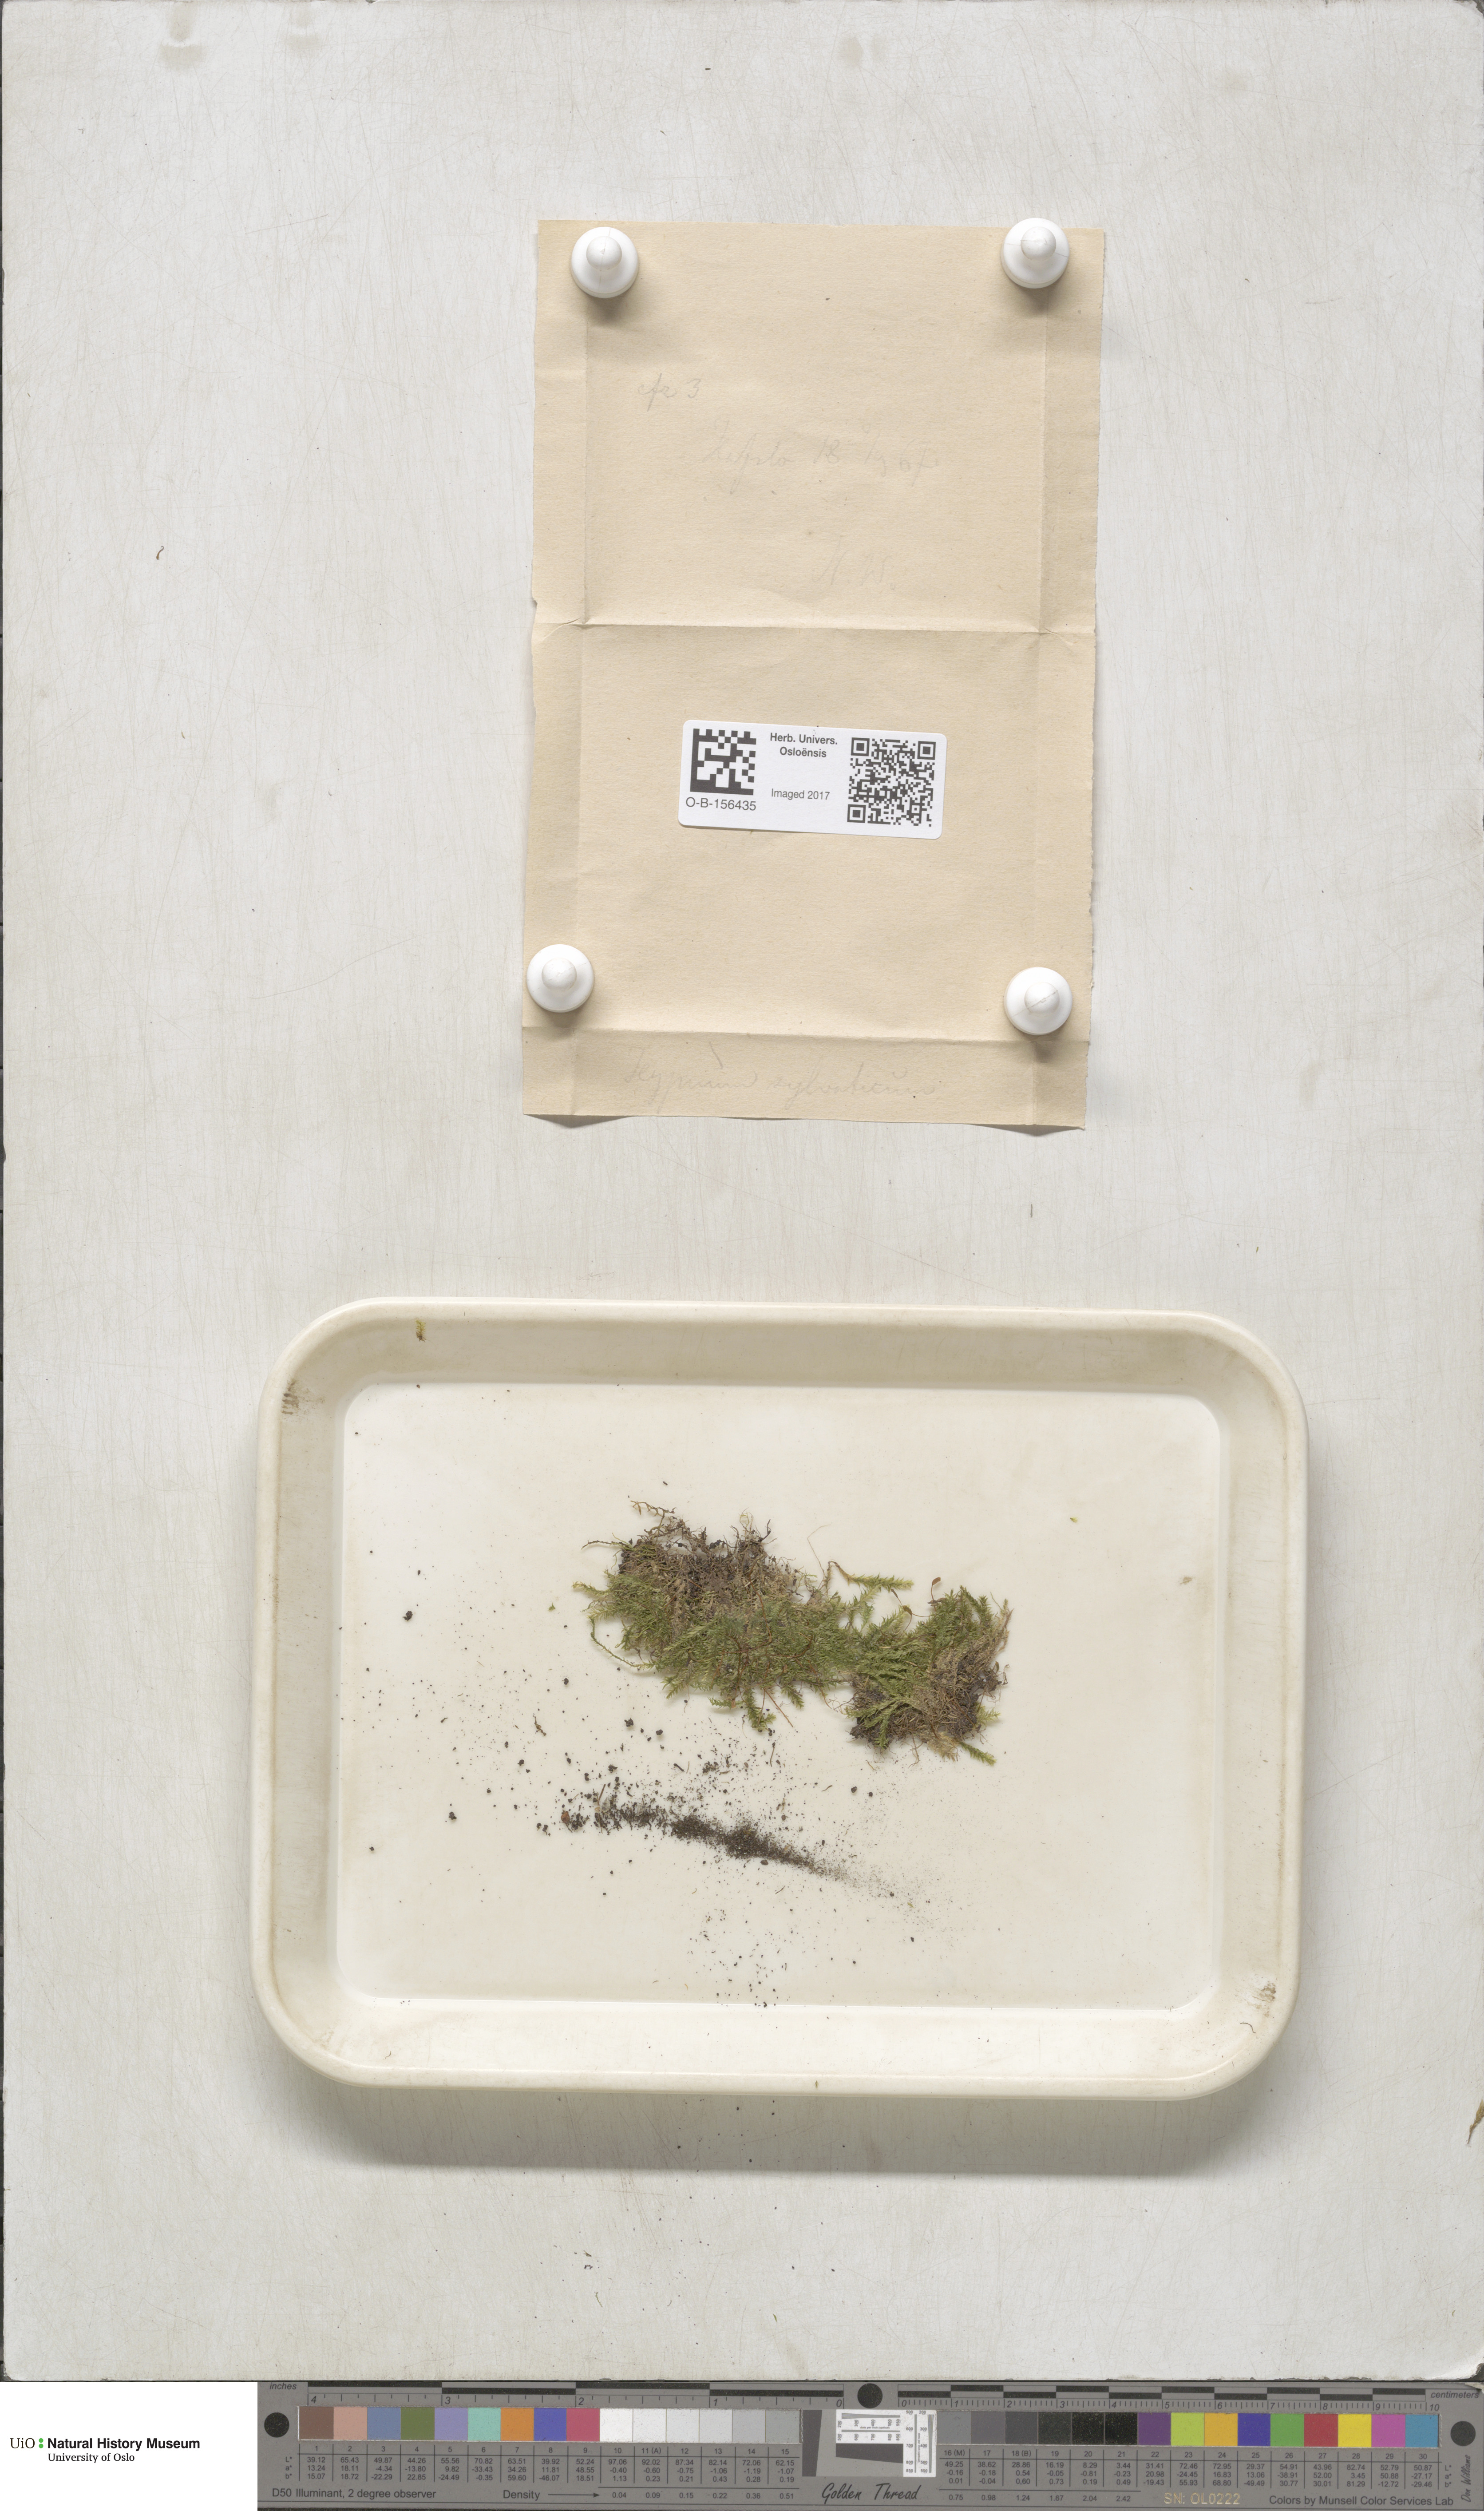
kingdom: Plantae
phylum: Bryophyta
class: Bryopsida
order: Hypnales
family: Plagiotheciaceae
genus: Plagiothecium
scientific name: Plagiothecium nemorale
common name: Woodsy silk-moss
